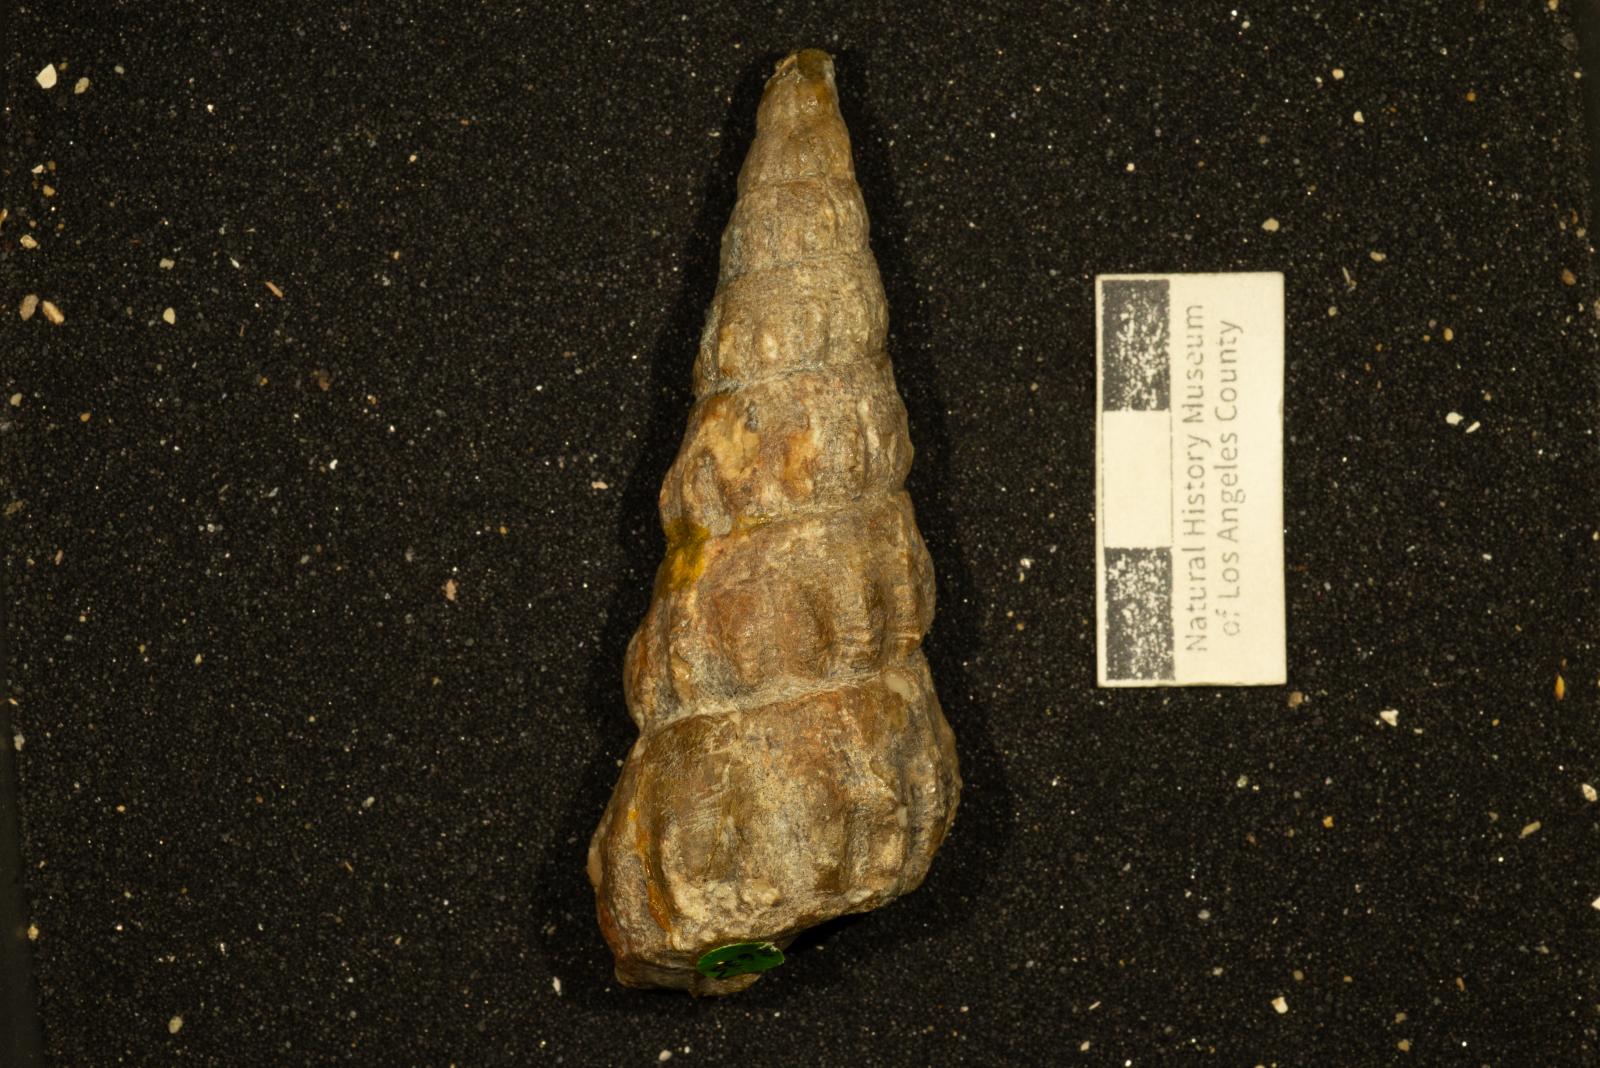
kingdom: Animalia
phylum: Mollusca
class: Gastropoda
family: Epitoniidae
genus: Confusiscala
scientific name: Confusiscala Mesostoma newcombii
